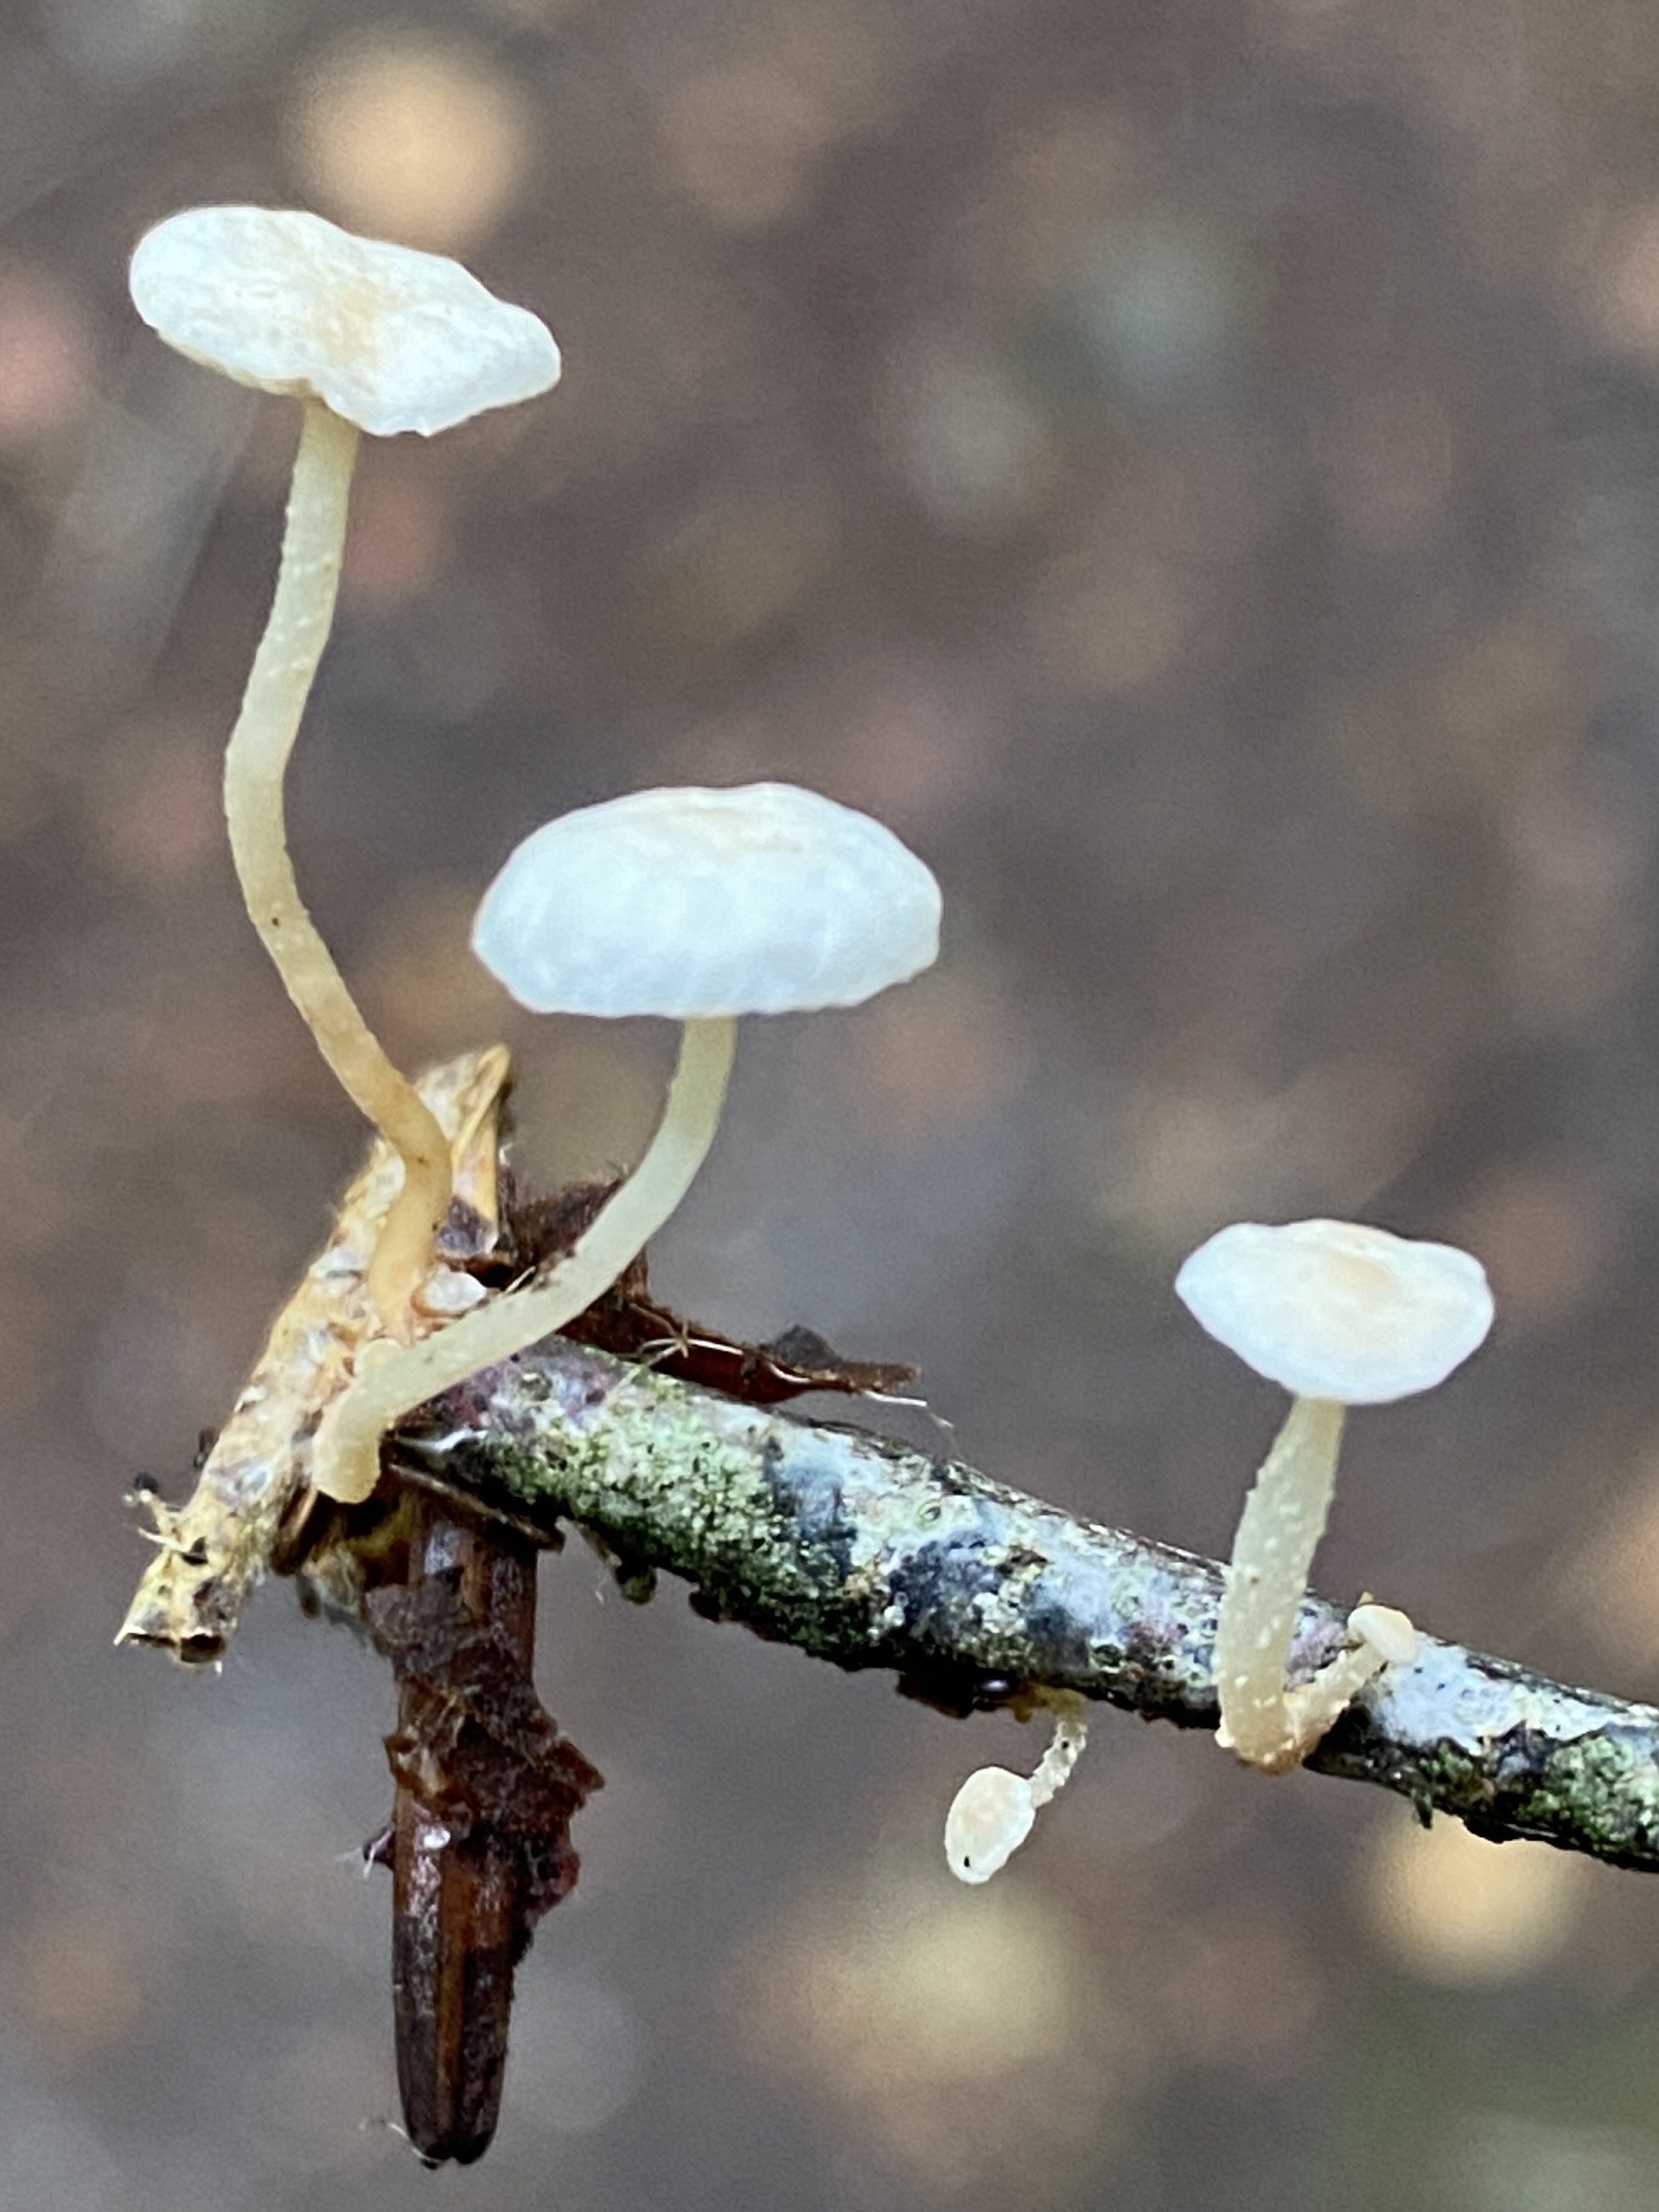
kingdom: Fungi
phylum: Basidiomycota
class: Agaricomycetes
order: Agaricales
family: Omphalotaceae
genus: Collybiopsis
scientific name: Collybiopsis ramealis
